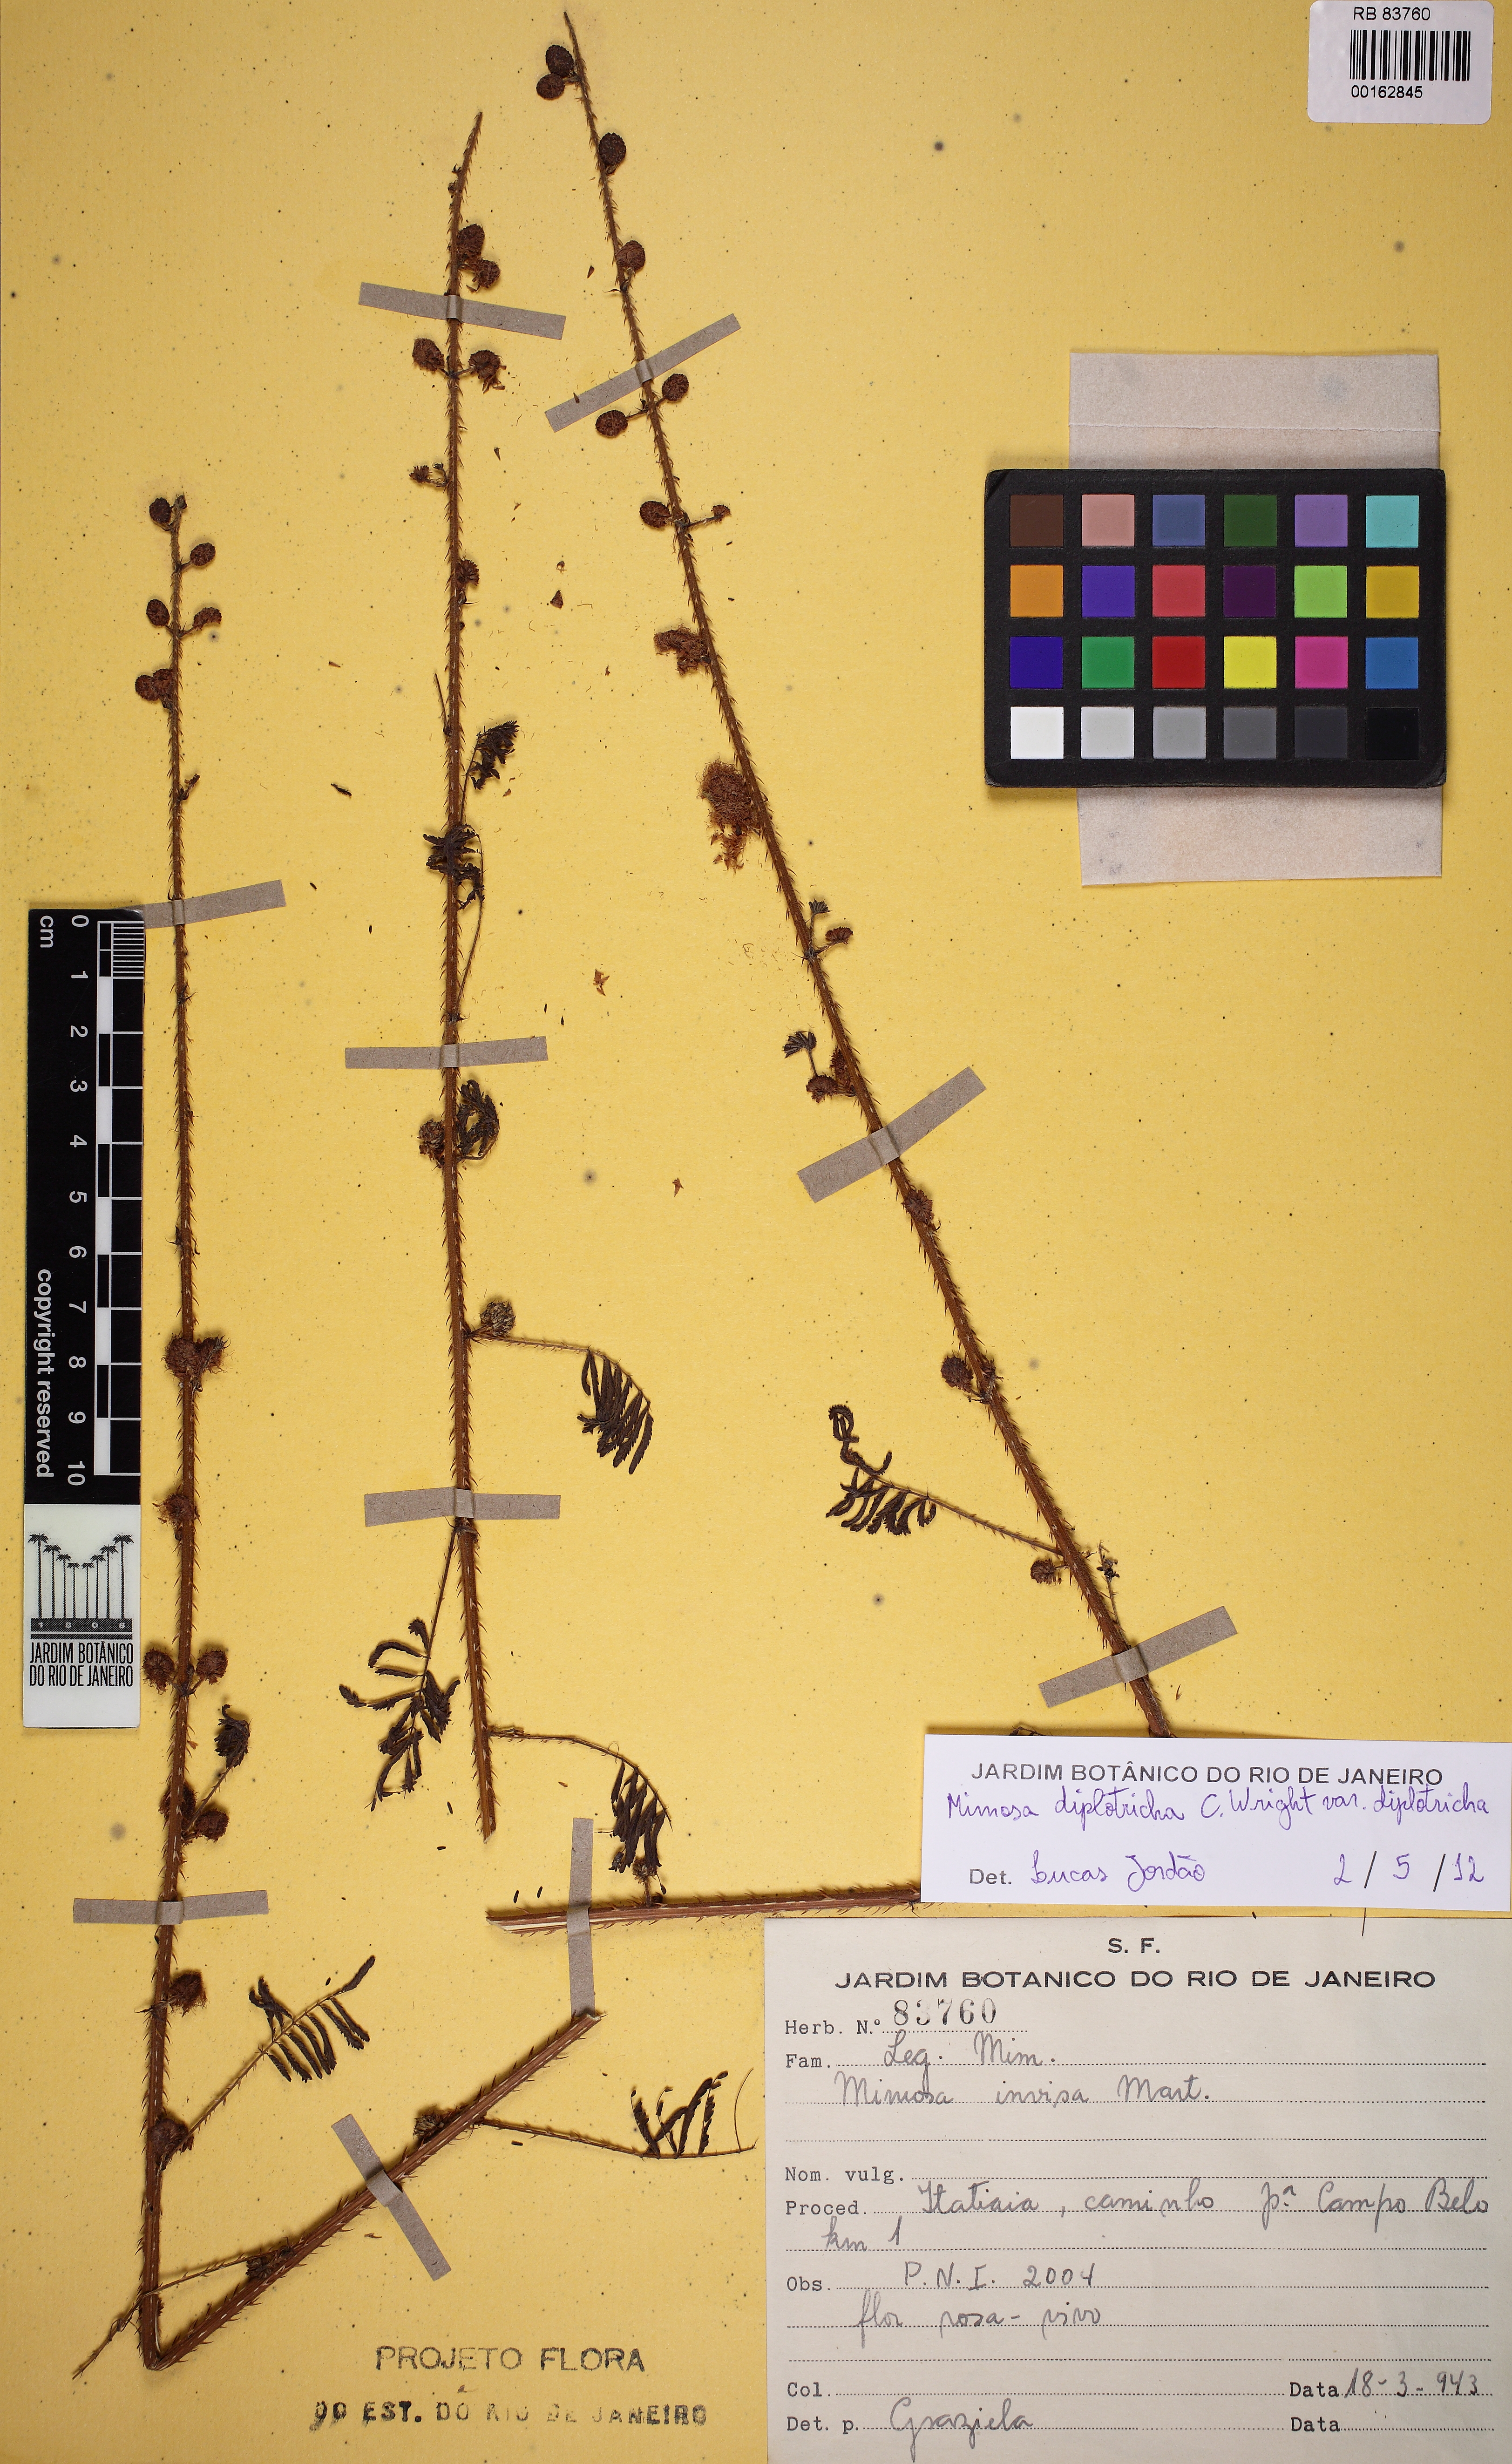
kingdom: Plantae
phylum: Tracheophyta
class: Magnoliopsida
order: Fabales
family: Fabaceae
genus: Mimosa
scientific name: Mimosa diplotricha
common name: Giant sensitive-plant
